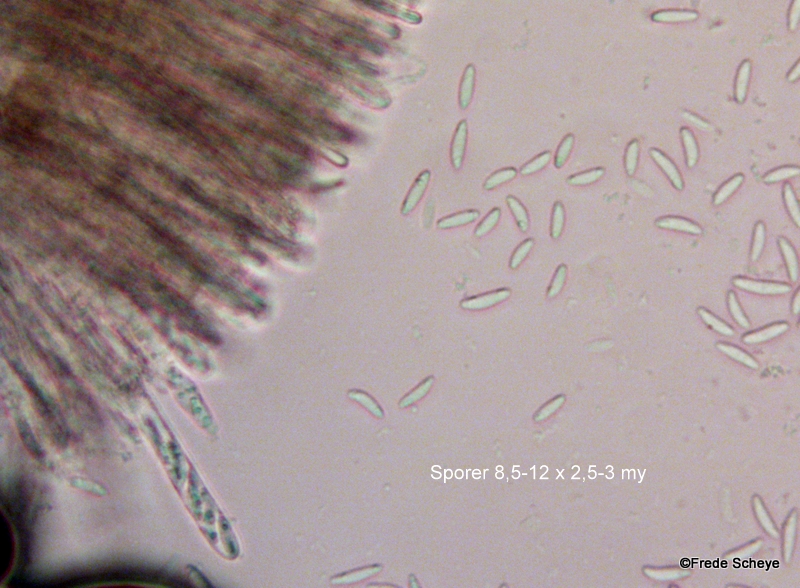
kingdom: Fungi
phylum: Ascomycota
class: Leotiomycetes
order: Helotiales
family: Mollisiaceae
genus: Mollisia
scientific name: Mollisia cinerea
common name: almindelig gråskive
